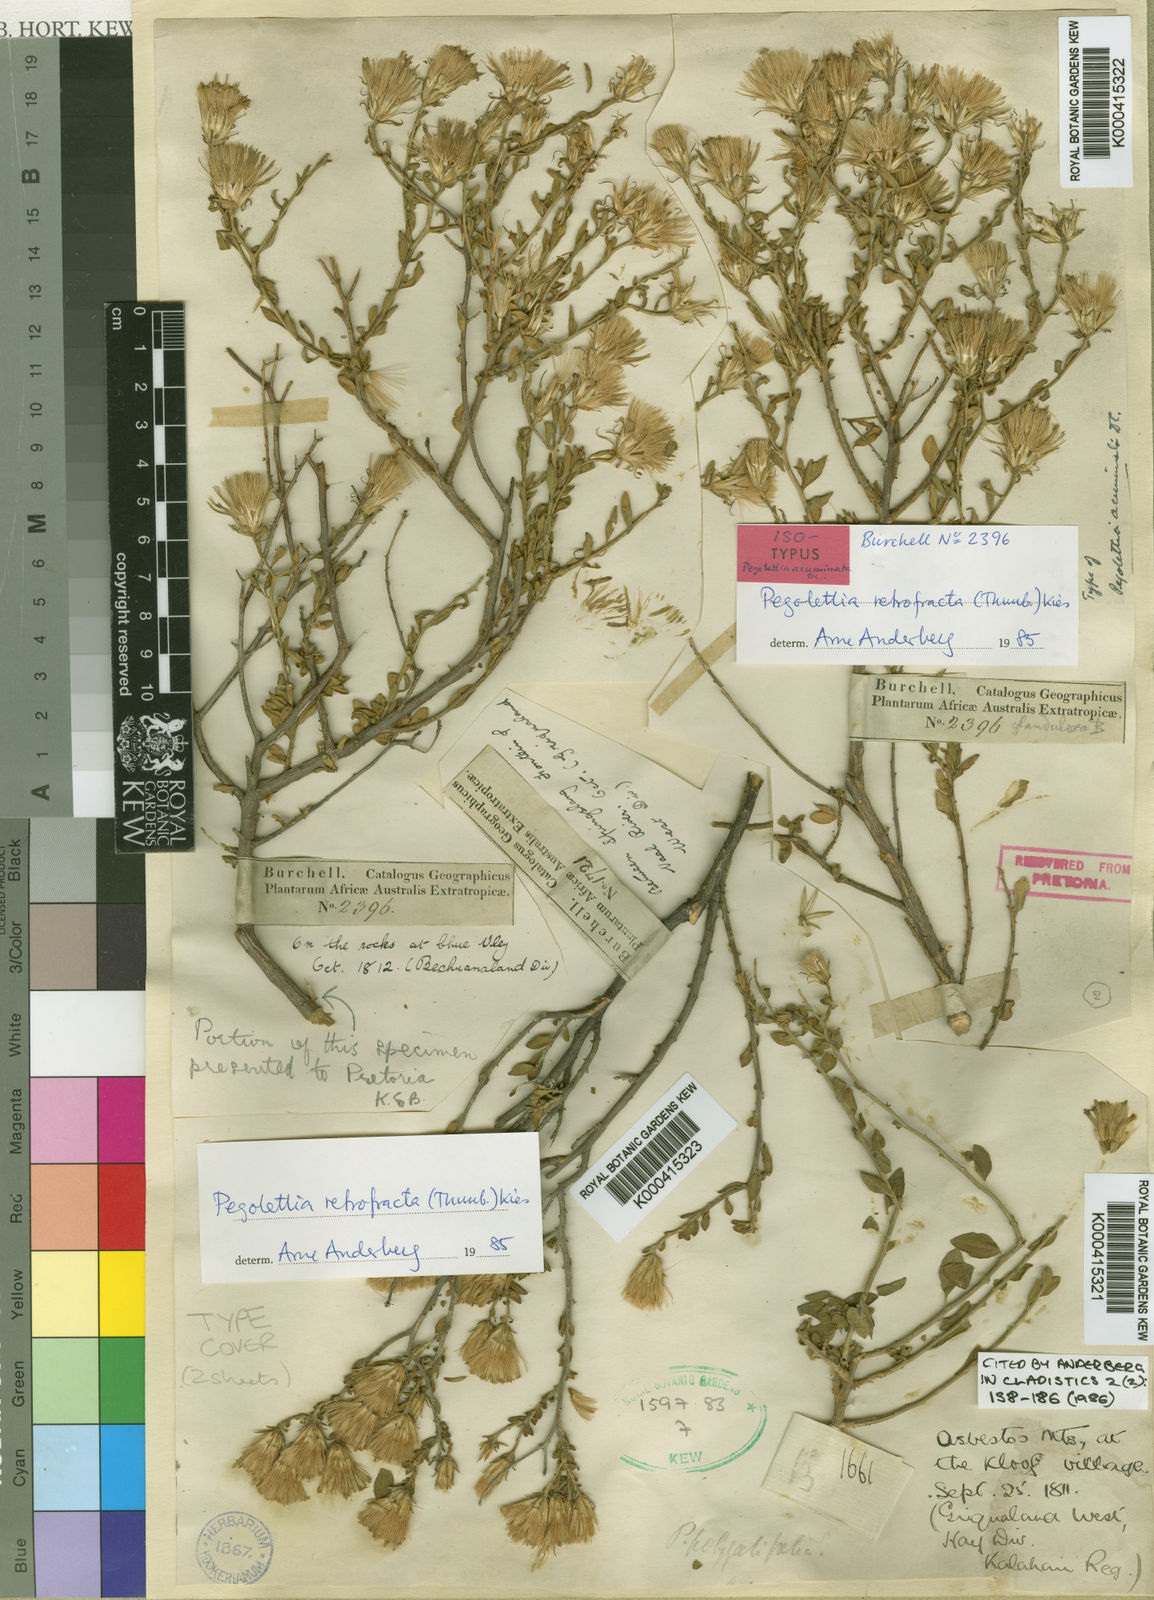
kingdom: Plantae
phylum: Tracheophyta
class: Magnoliopsida
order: Asterales
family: Asteraceae
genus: Pegolettia
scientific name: Pegolettia retrofracta
